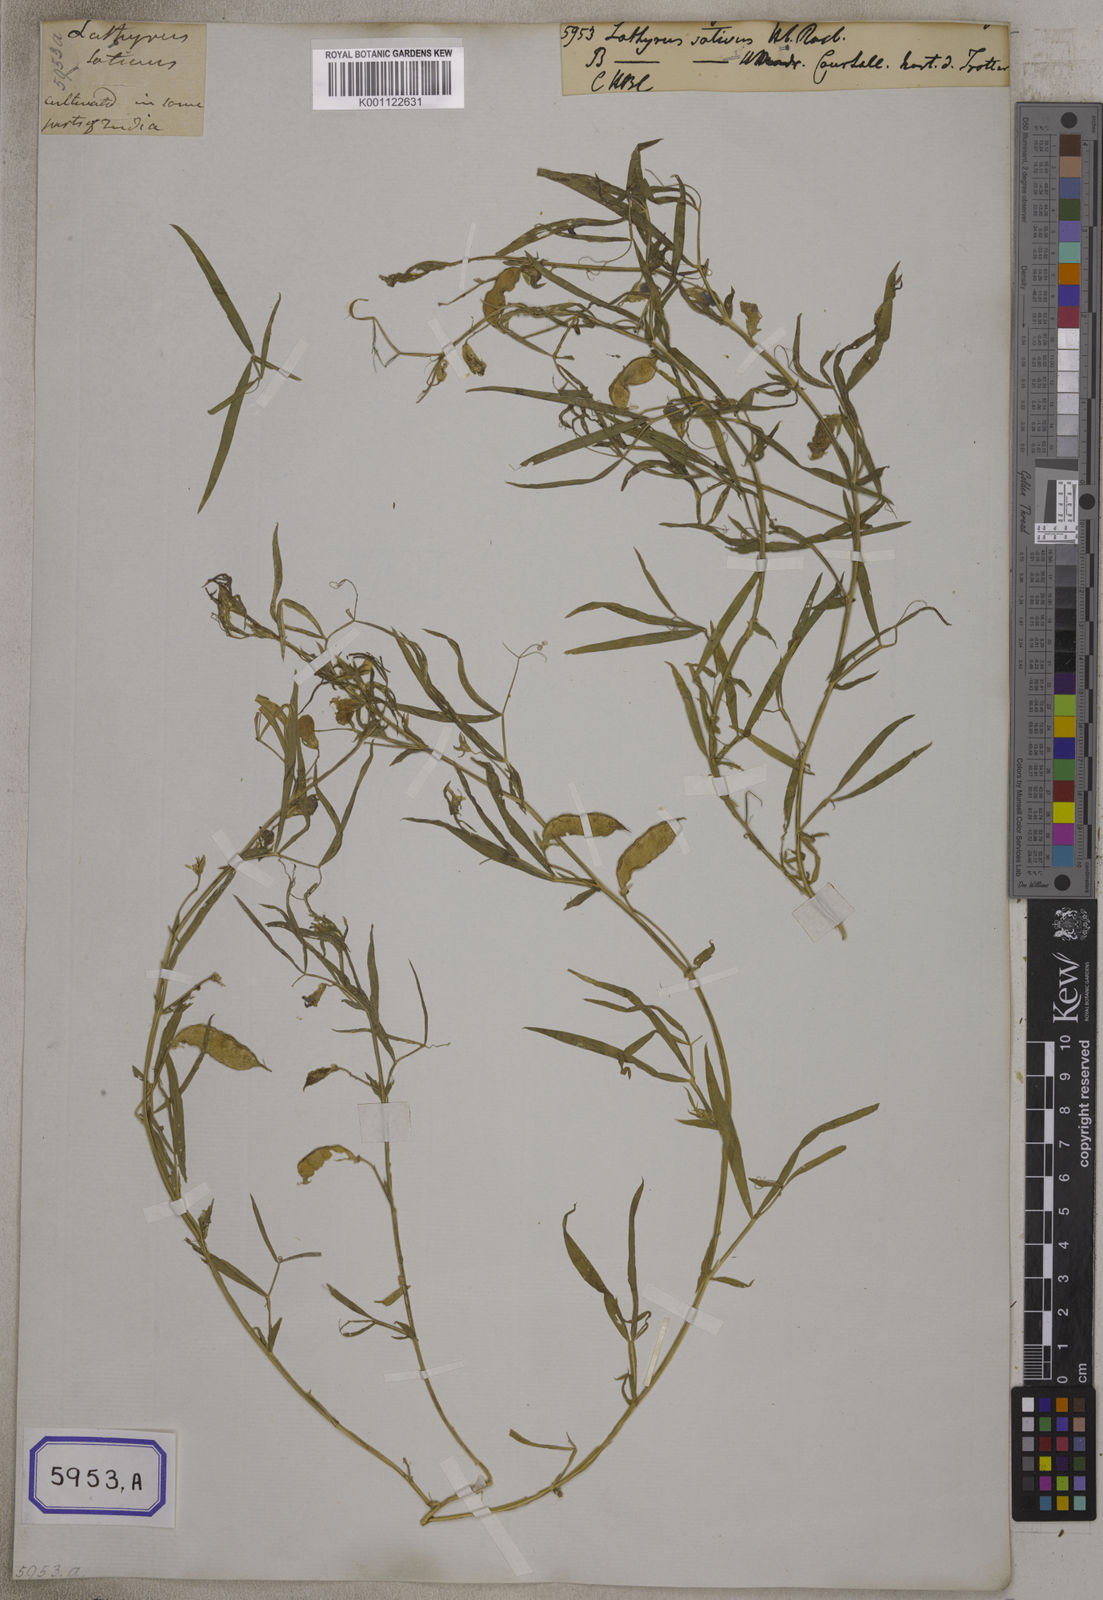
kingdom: Plantae
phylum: Tracheophyta
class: Magnoliopsida
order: Fabales
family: Fabaceae
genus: Lathyrus
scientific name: Lathyrus sativus
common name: Indian pea
